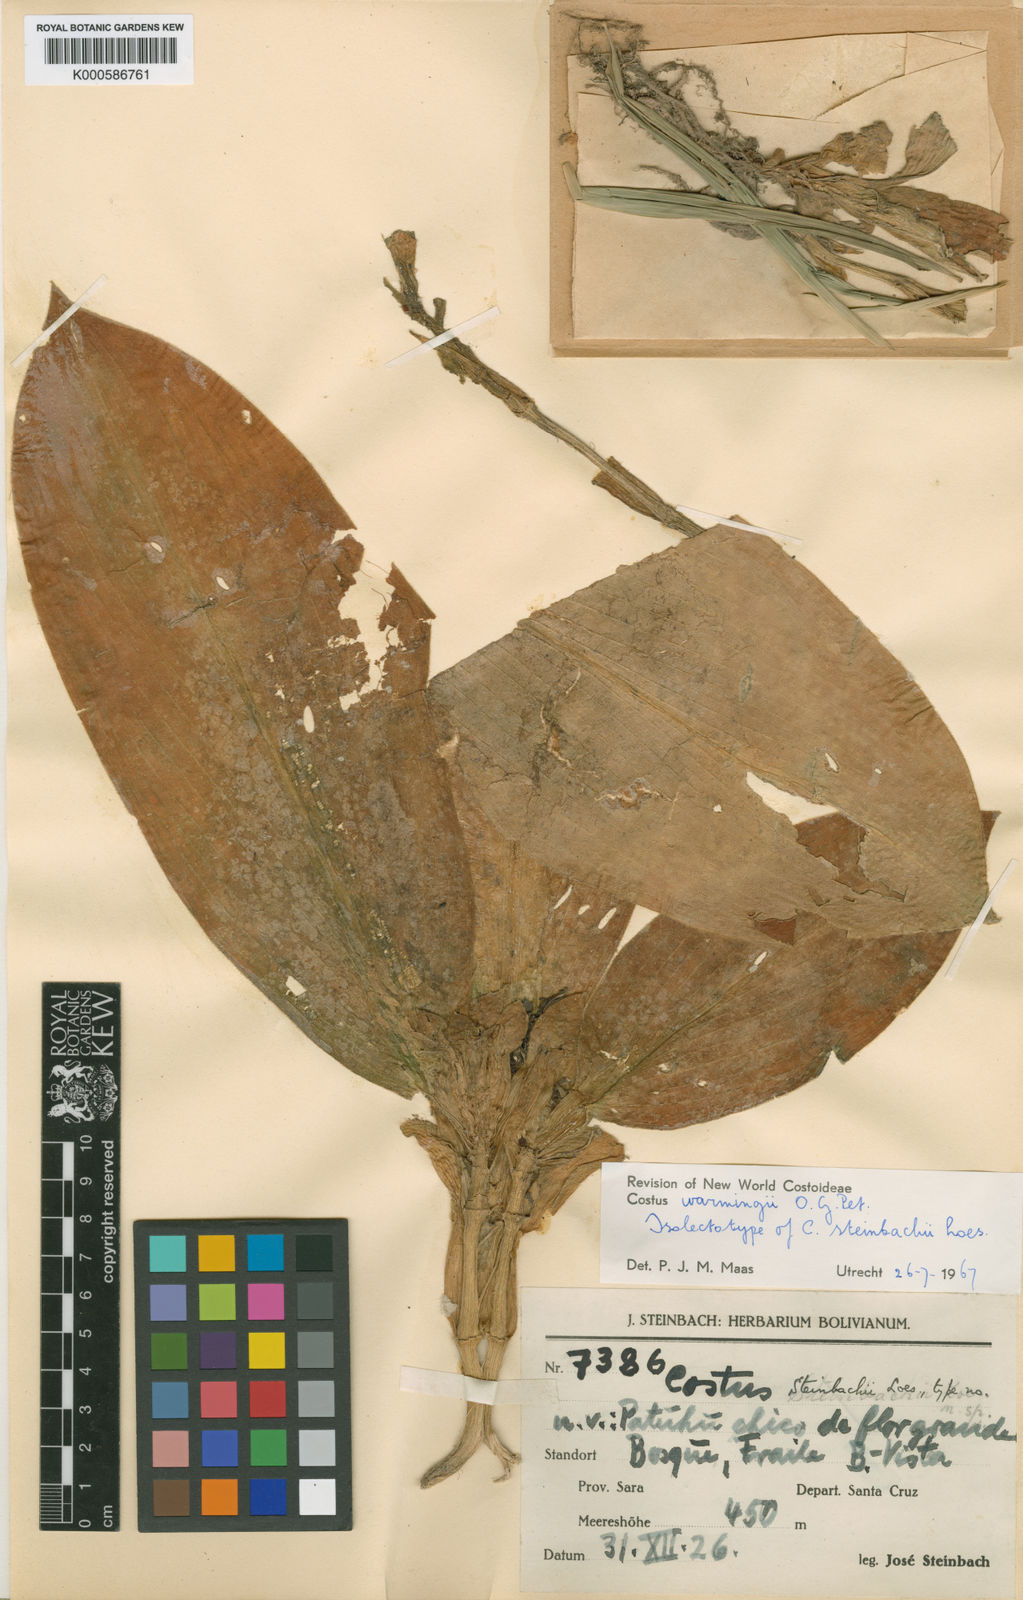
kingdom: Plantae
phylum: Tracheophyta
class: Liliopsida
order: Zingiberales
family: Costaceae
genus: Chamaecostus
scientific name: Chamaecostus subsessilis
